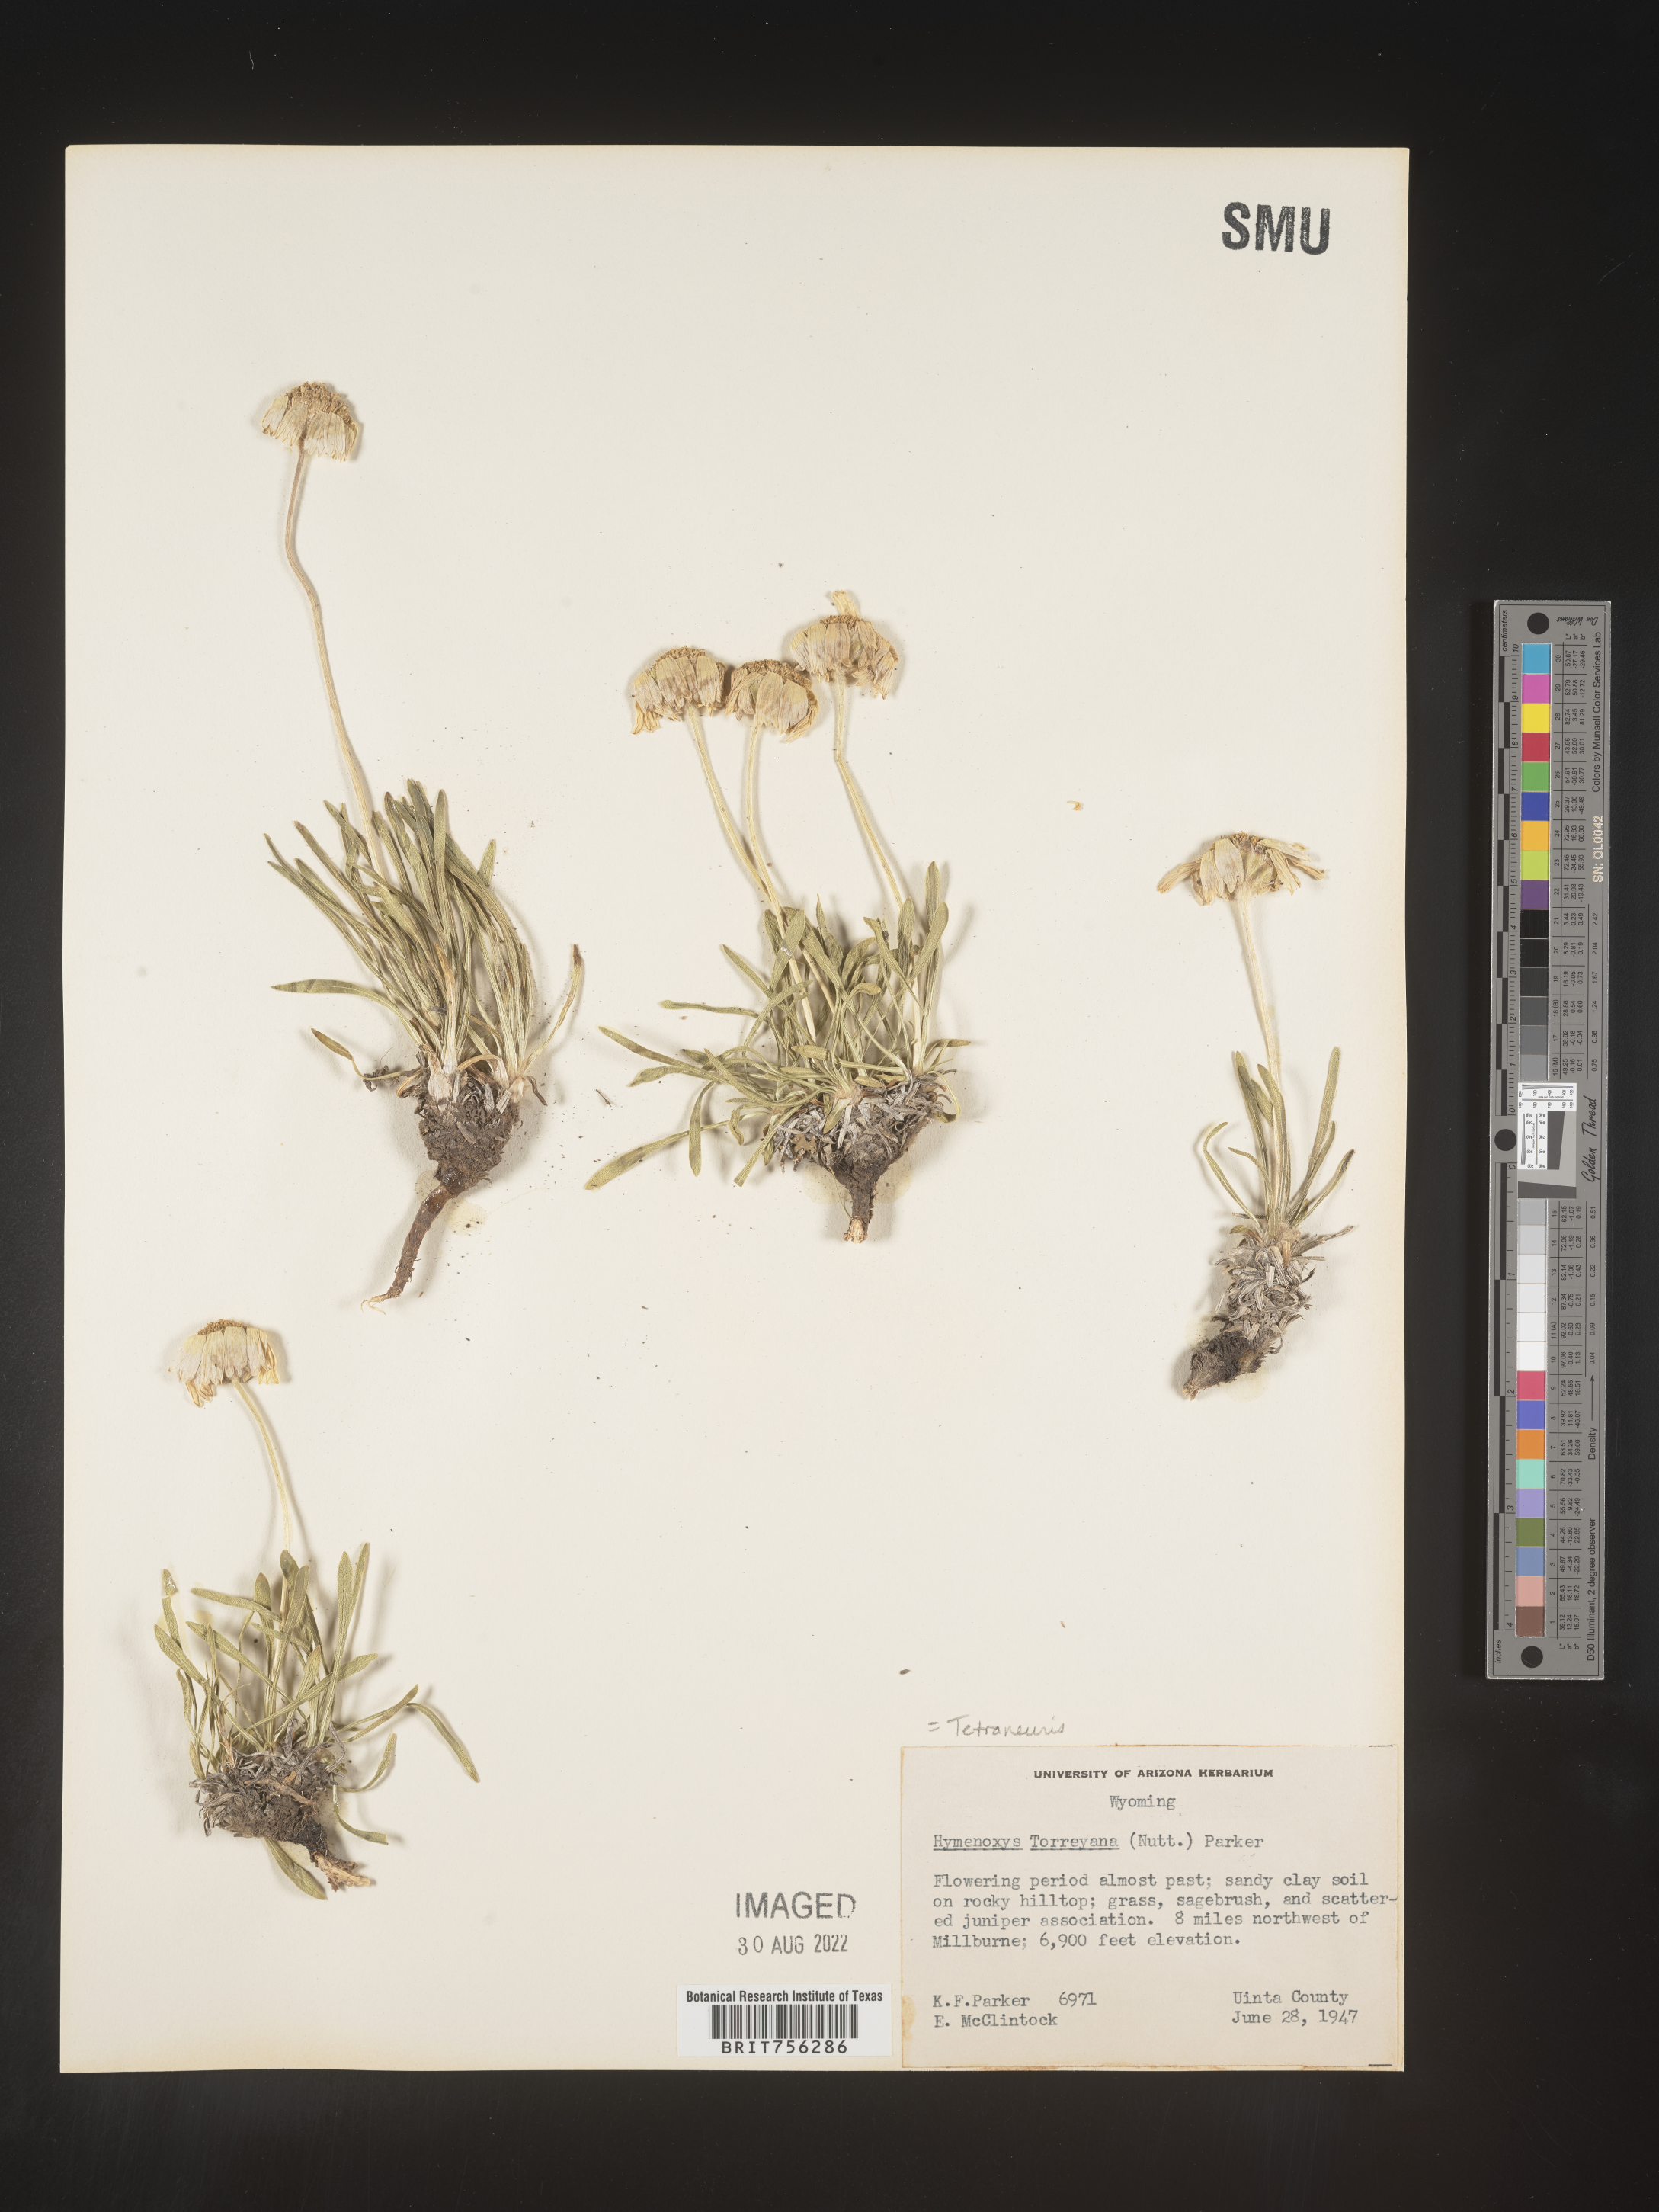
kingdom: Plantae
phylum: Tracheophyta
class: Magnoliopsida
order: Asterales
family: Asteraceae
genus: Tetraneuris
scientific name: Tetraneuris torreyana
